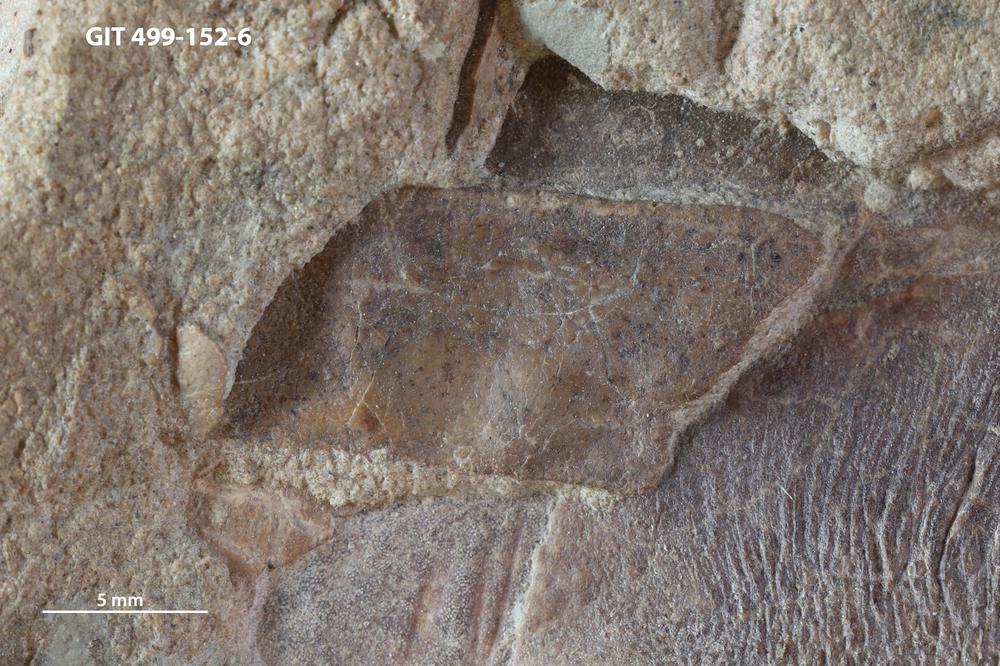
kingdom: Animalia
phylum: Chordata
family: Holoptychiidae
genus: Glyptolepis
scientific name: Glyptolepis
